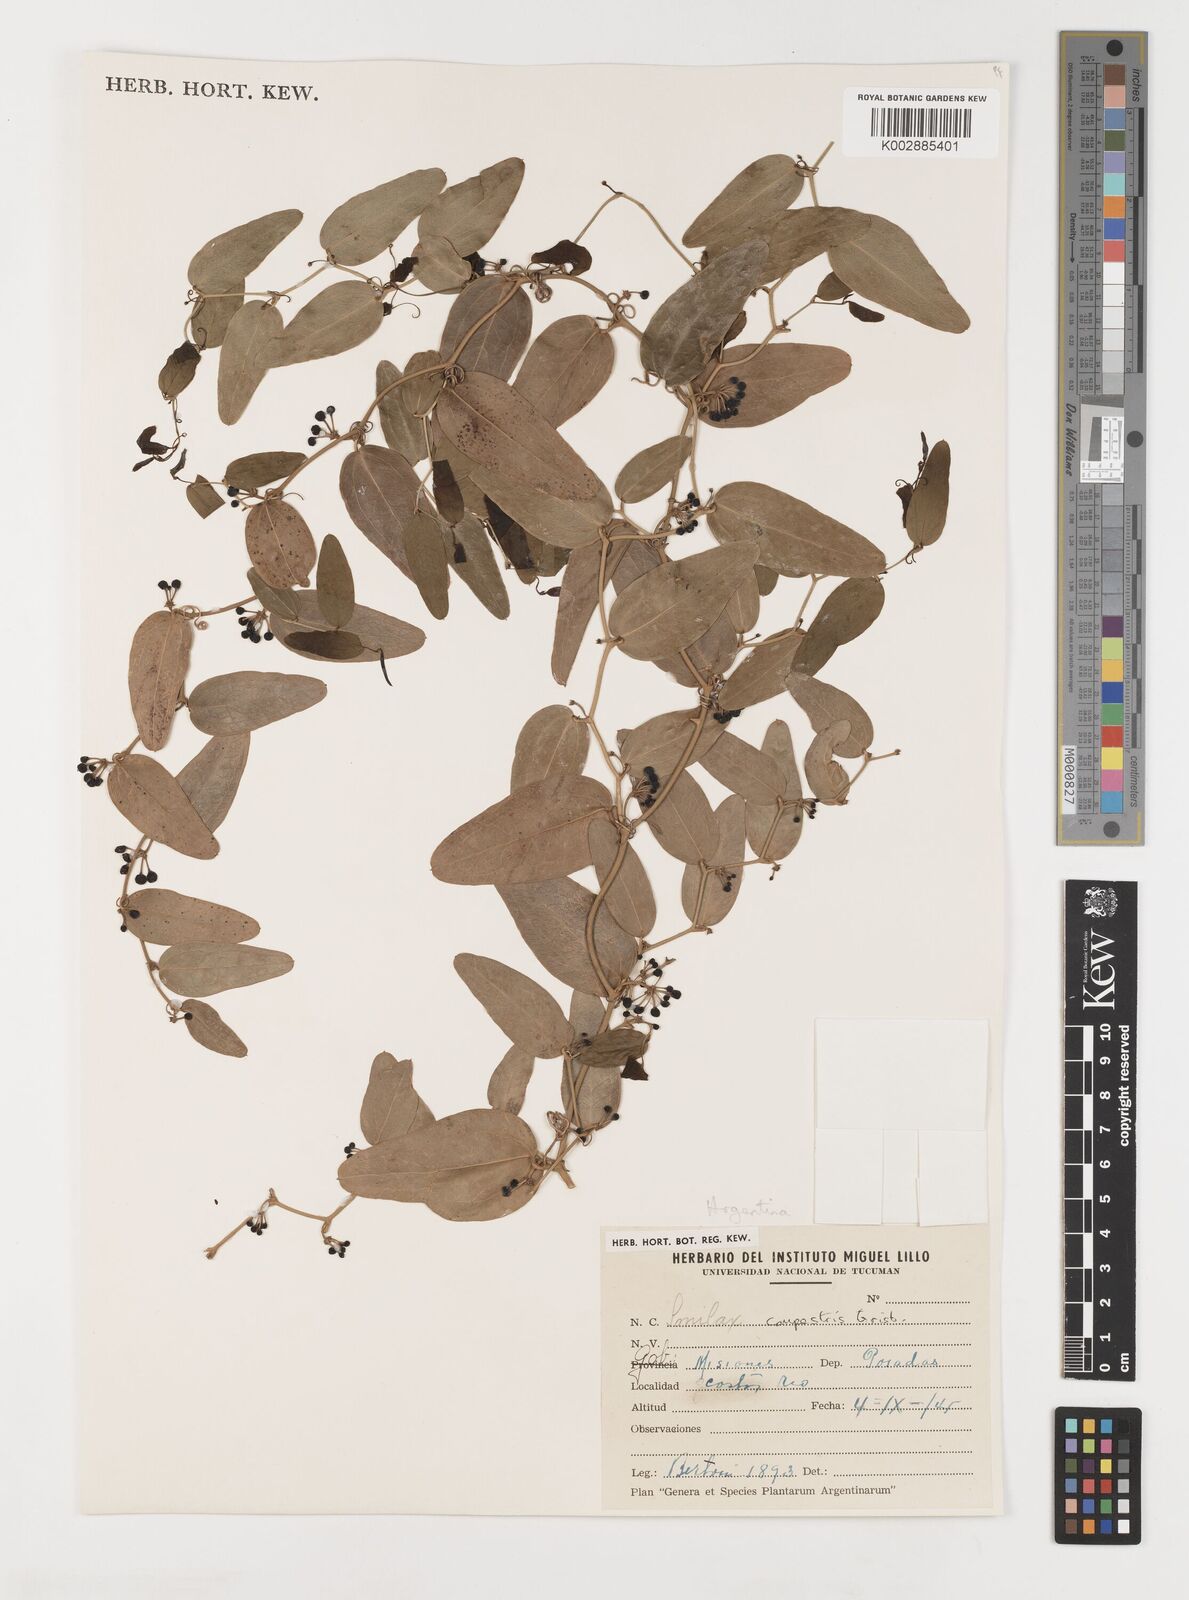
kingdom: Plantae
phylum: Tracheophyta
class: Liliopsida
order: Liliales
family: Smilacaceae
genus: Smilax
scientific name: Smilax campestris
